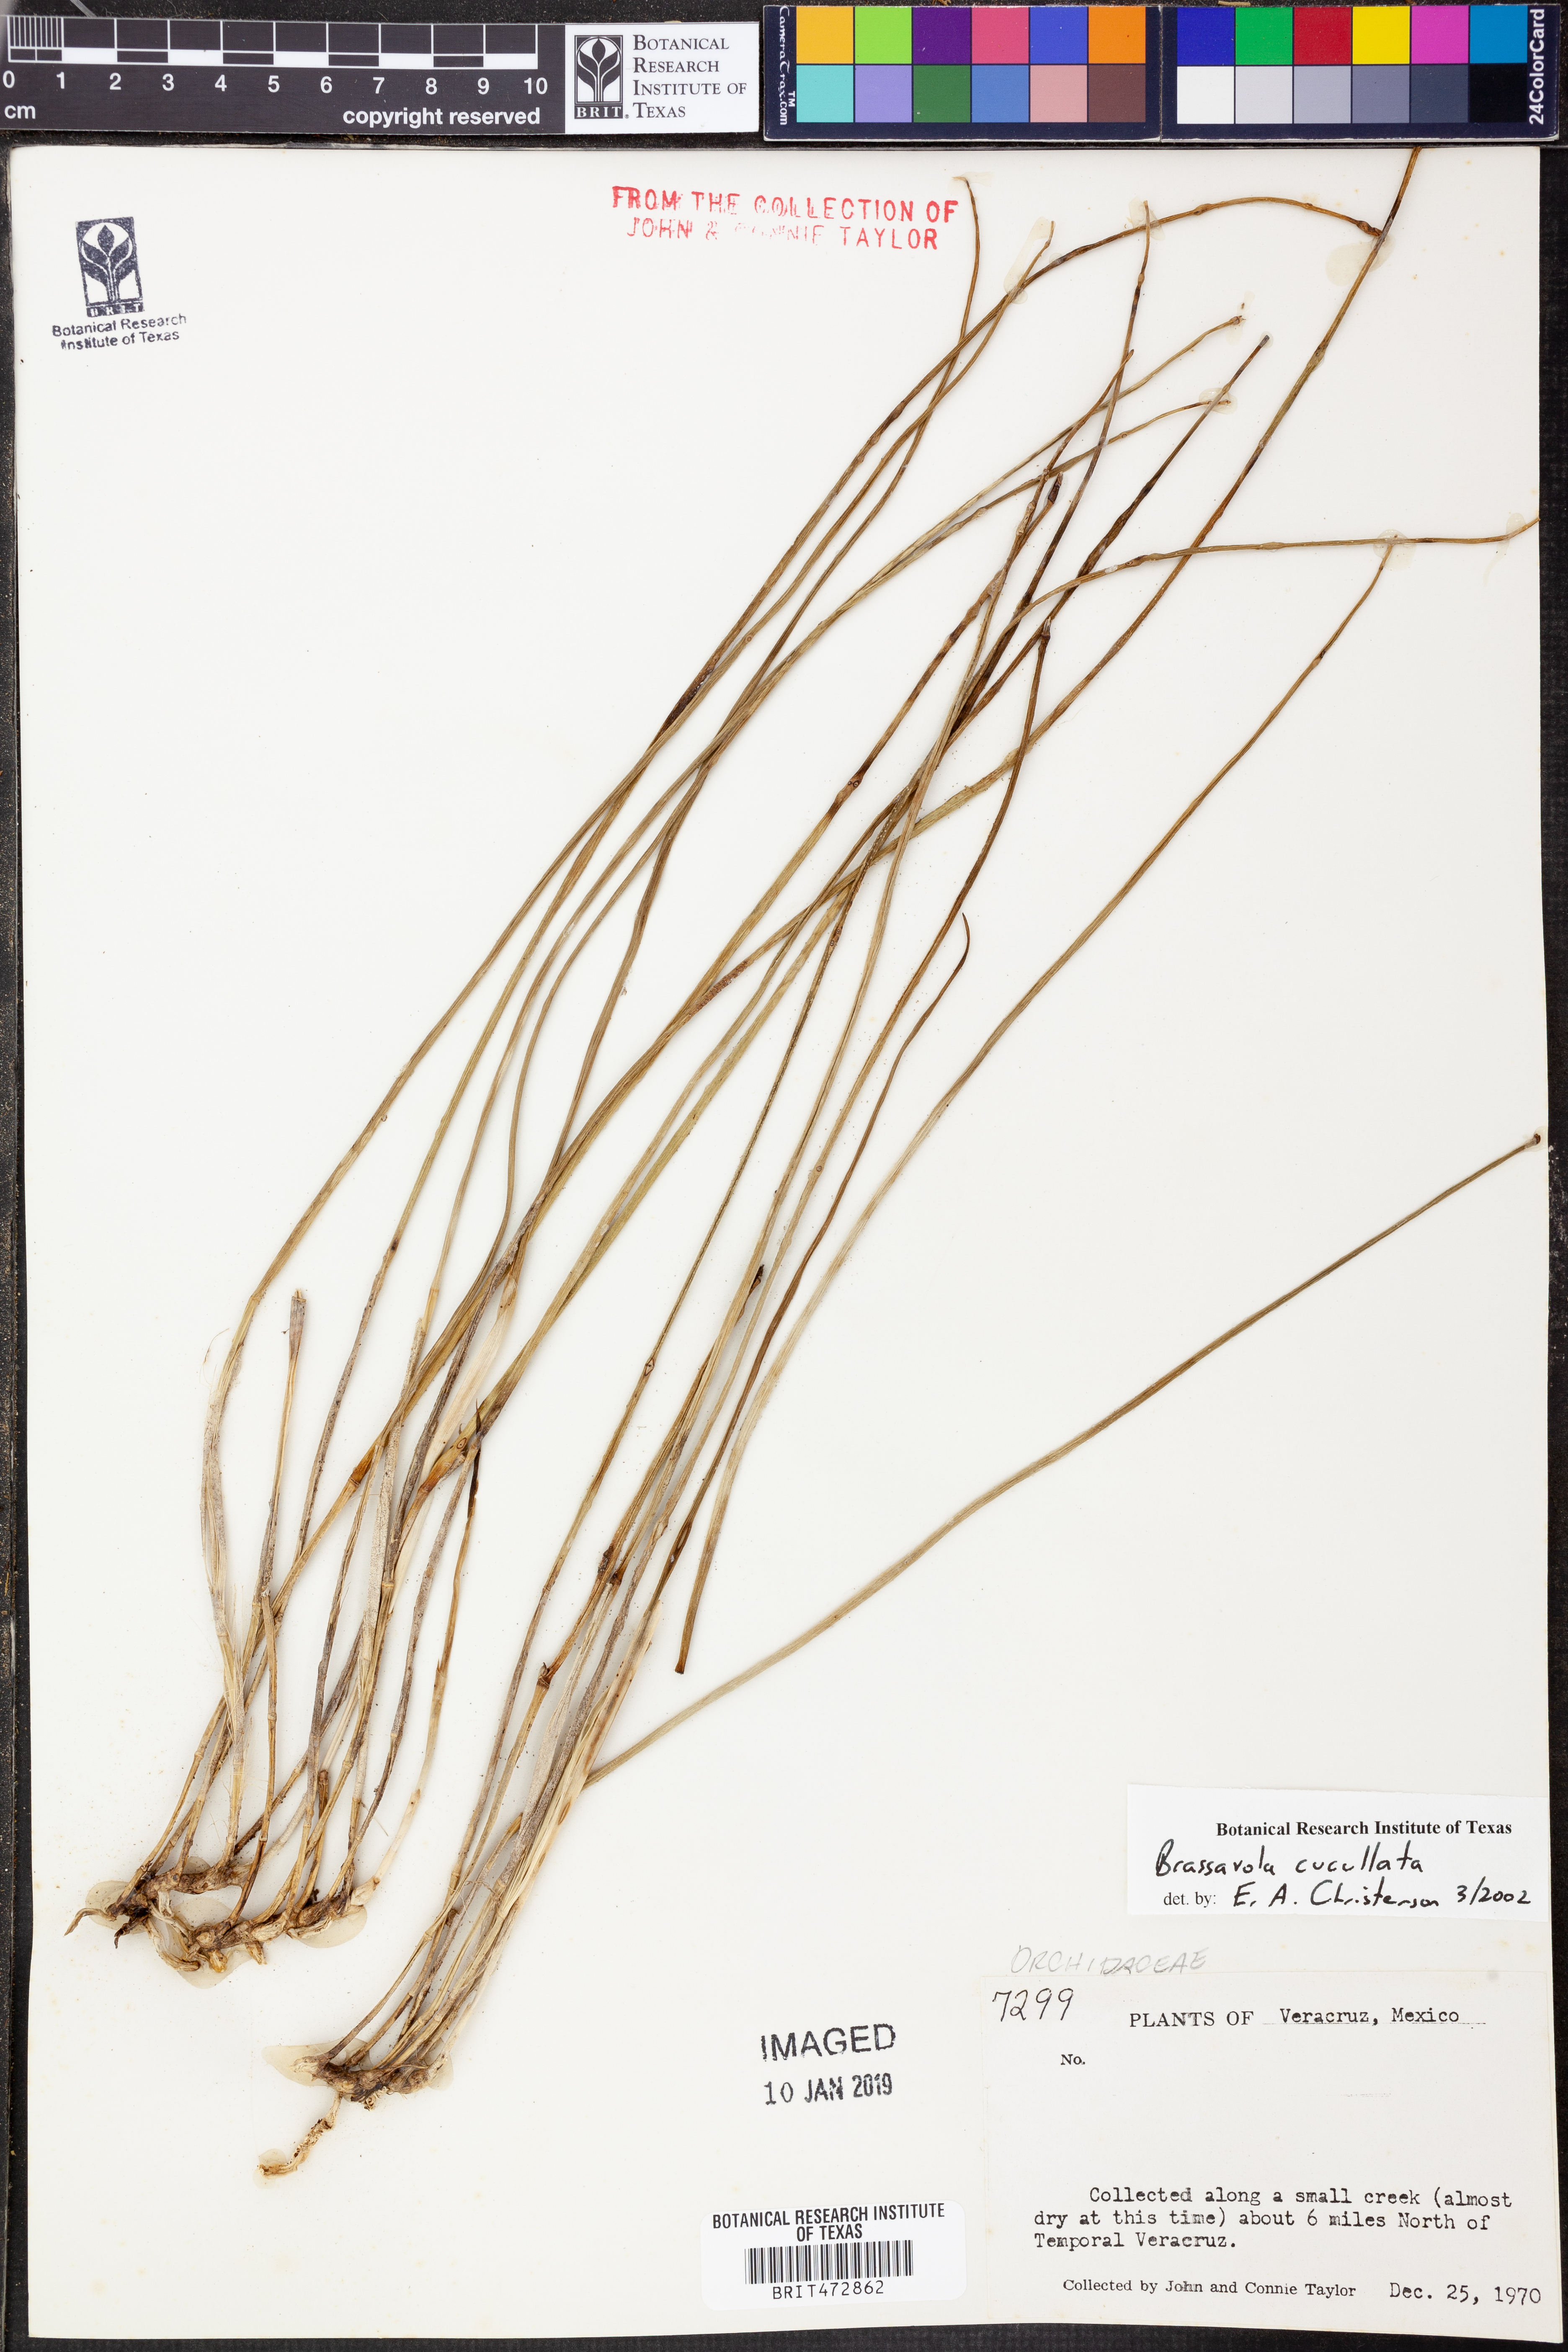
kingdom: Plantae
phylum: Tracheophyta
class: Liliopsida
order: Asparagales
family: Orchidaceae
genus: Brassavola
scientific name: Brassavola cucullata
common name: Daddy longlegs orchid
